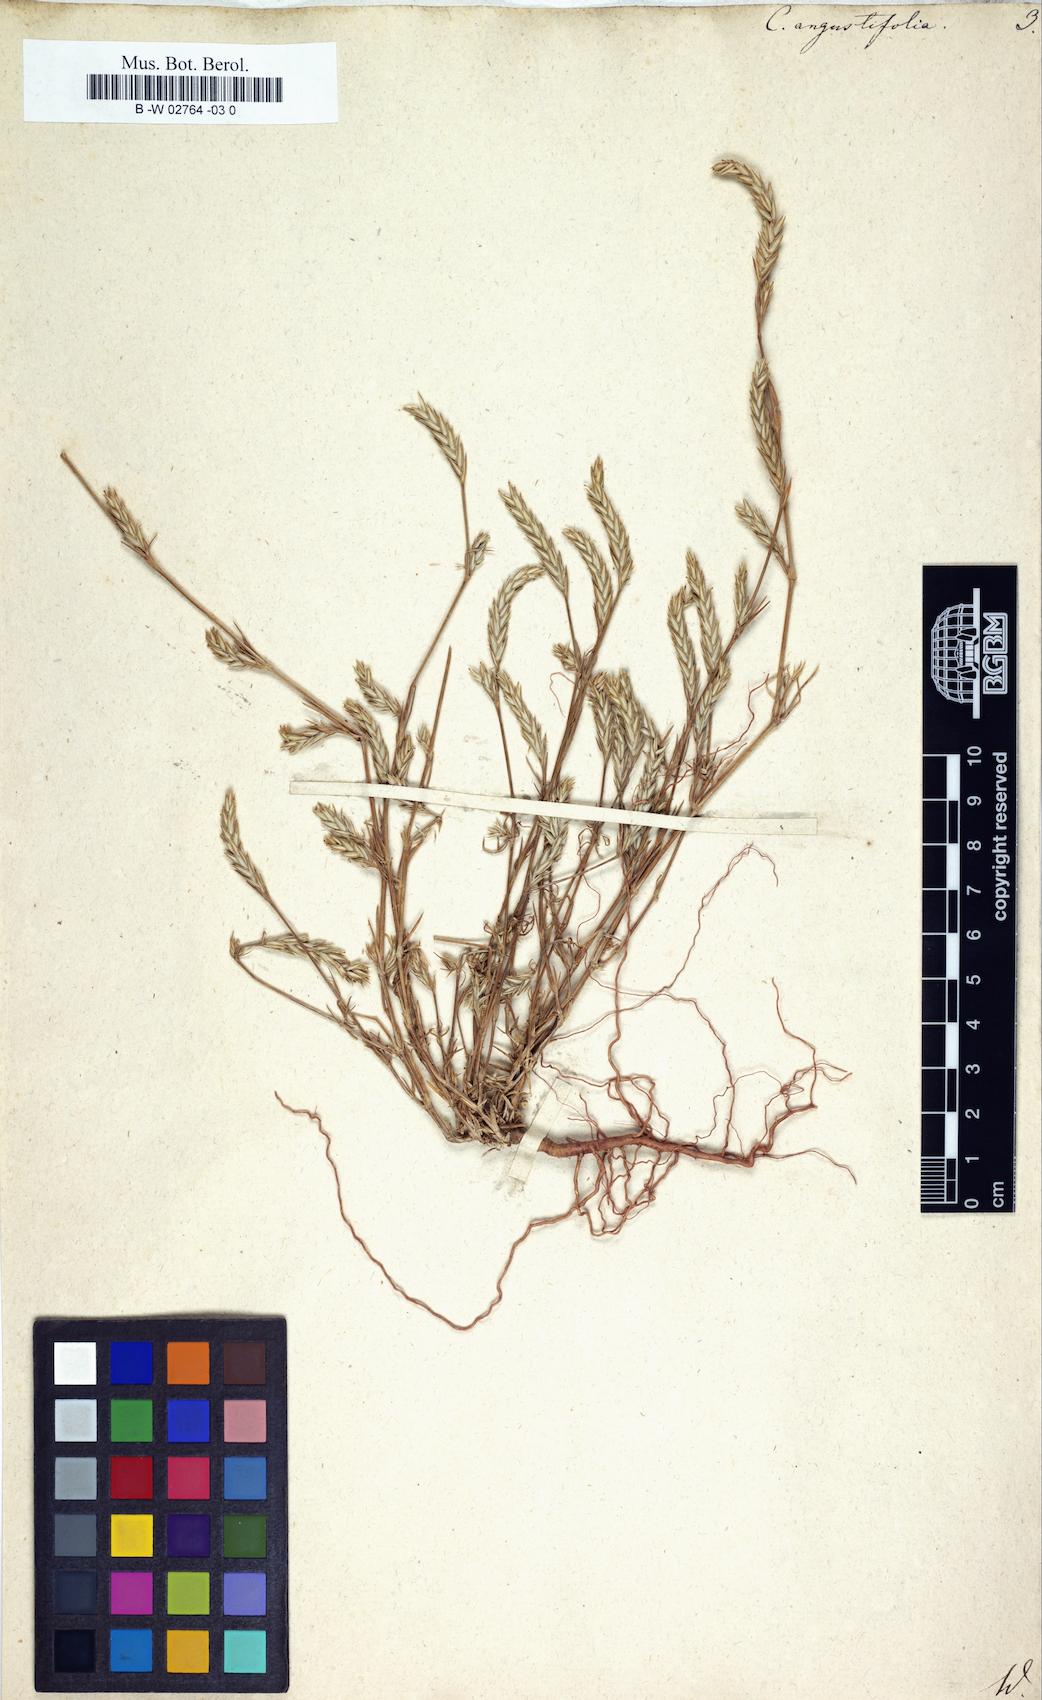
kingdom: Plantae
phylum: Tracheophyta
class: Magnoliopsida
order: Gentianales
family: Rubiaceae
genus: Crucianella
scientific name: Crucianella angustifolia
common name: Narrowleaf crucianella
